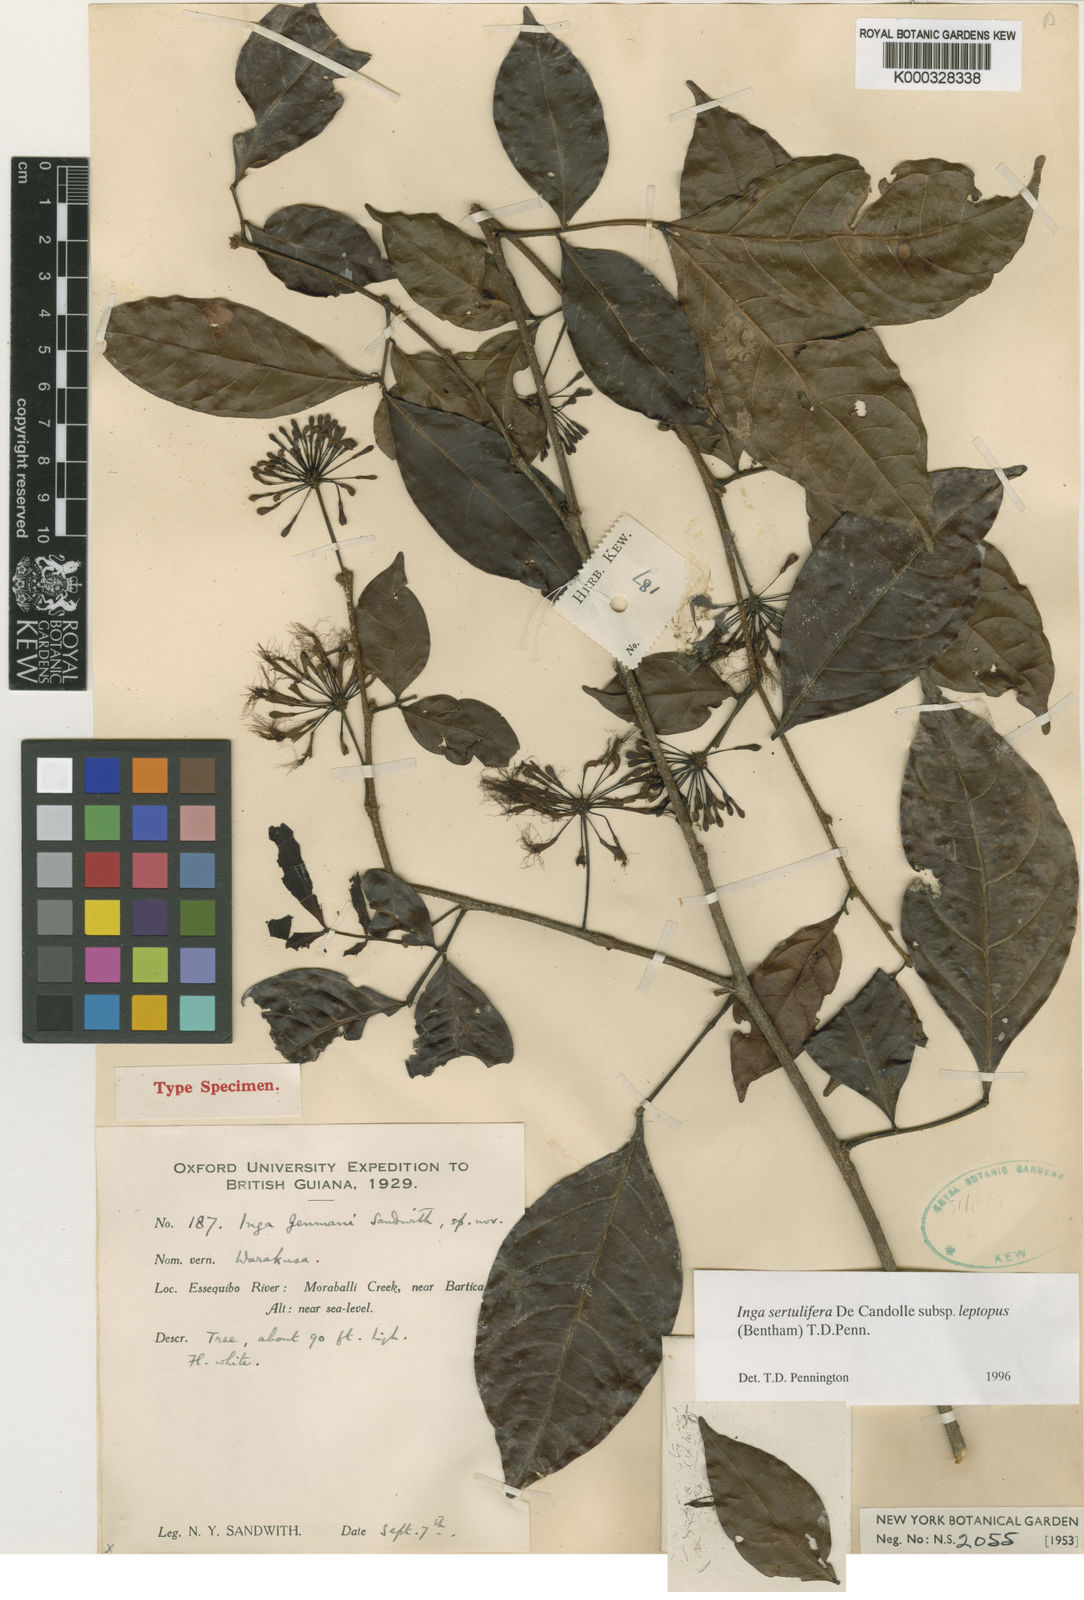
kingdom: Plantae
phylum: Tracheophyta
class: Magnoliopsida
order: Fabales
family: Fabaceae
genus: Inga
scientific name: Inga sertulifera
